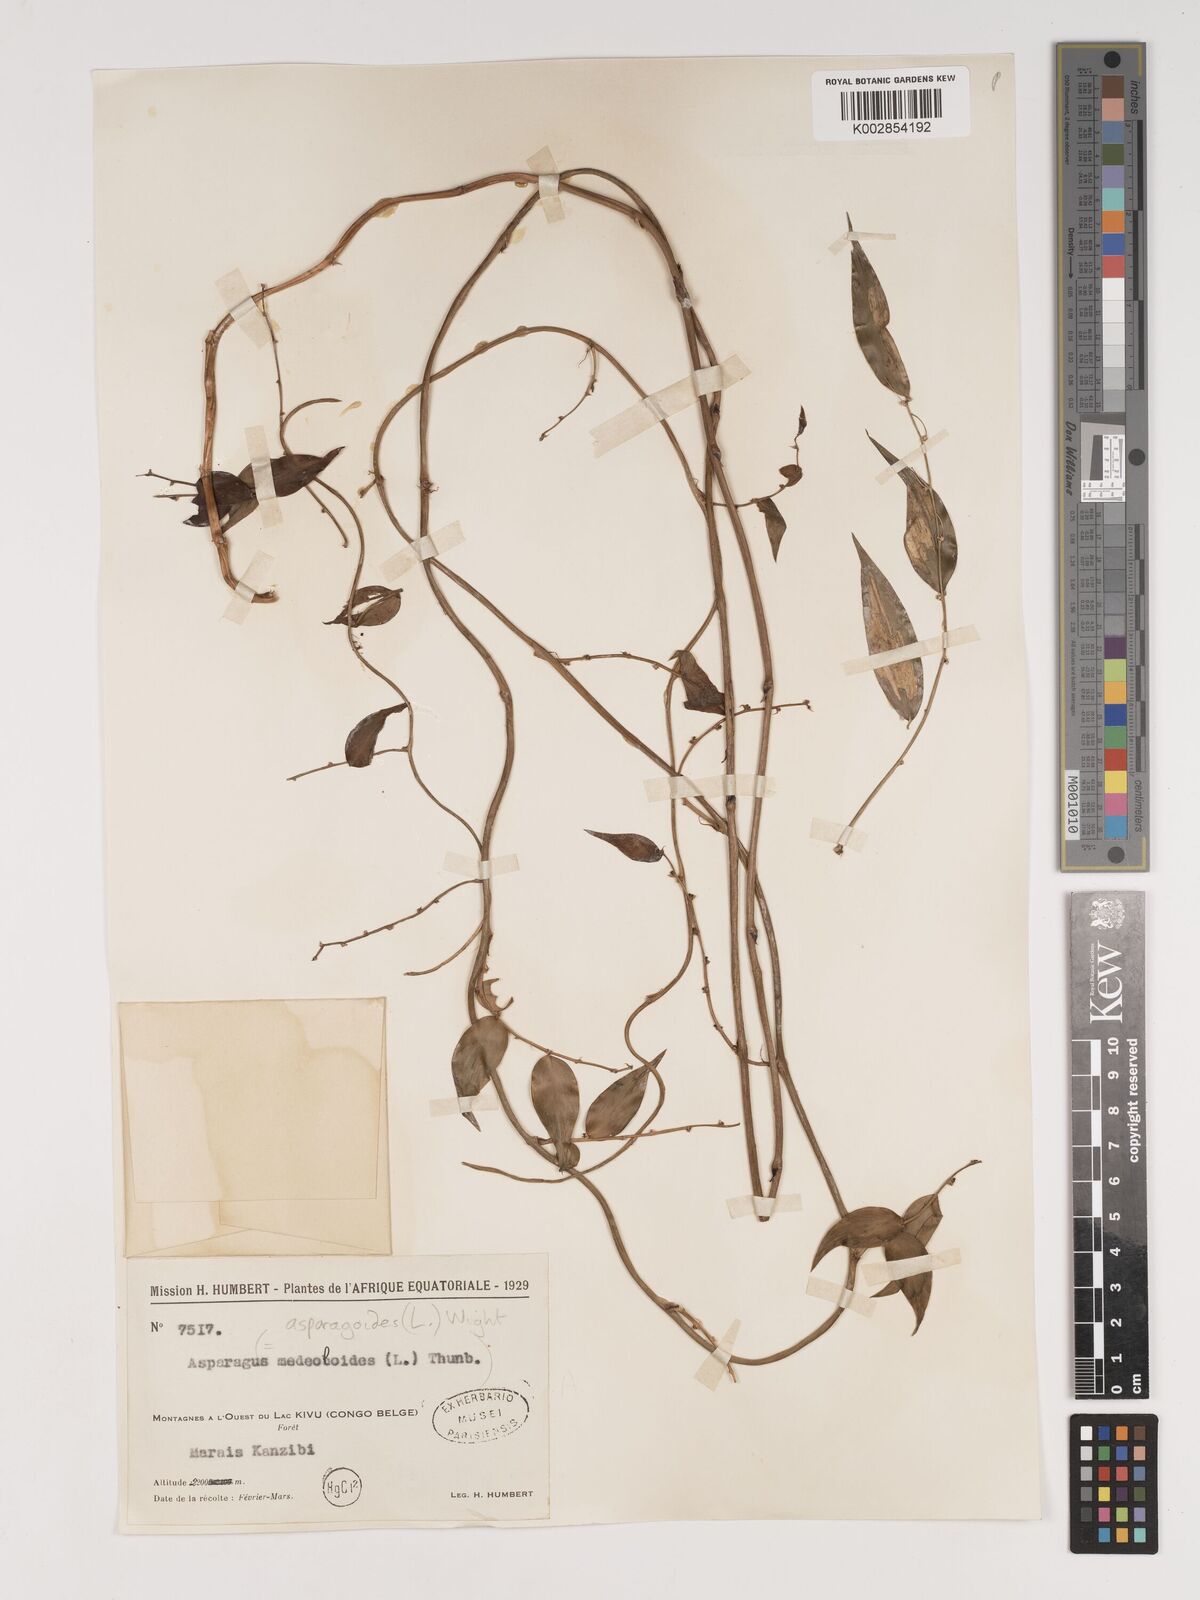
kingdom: Plantae
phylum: Tracheophyta
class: Liliopsida
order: Asparagales
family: Asparagaceae
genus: Asparagus
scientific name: Asparagus asparagoides
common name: African asparagus fern
